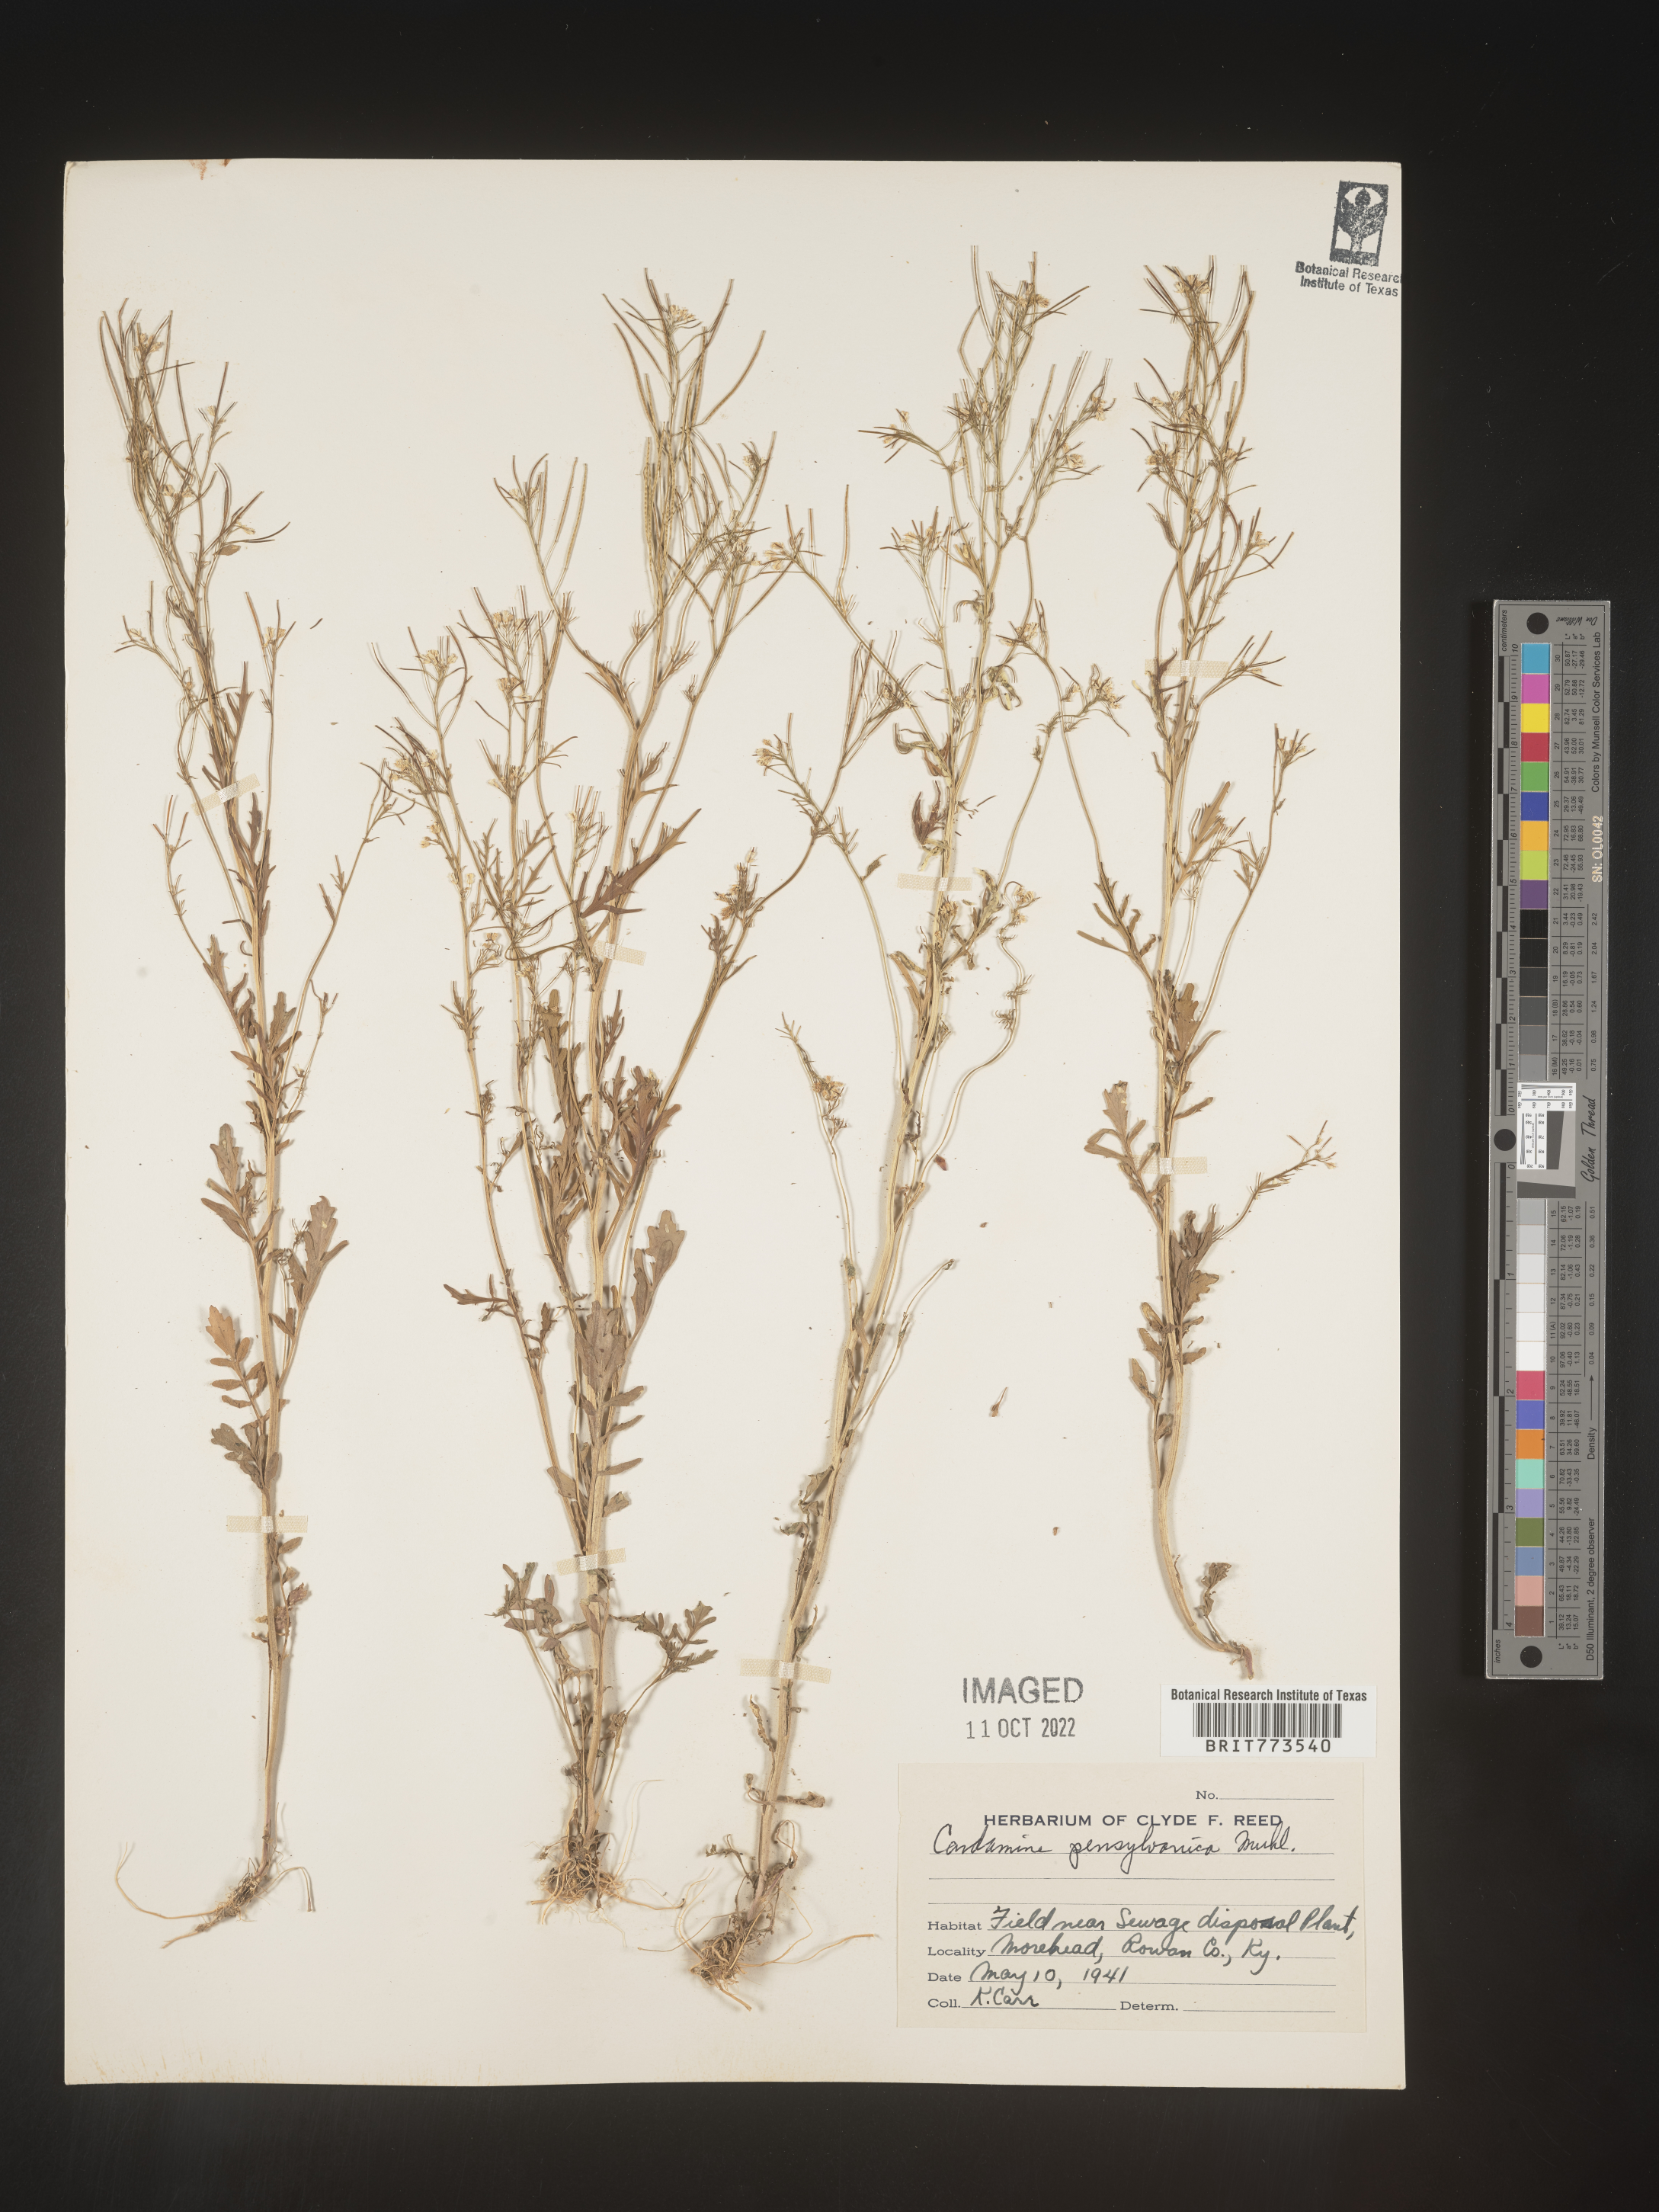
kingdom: Plantae
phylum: Tracheophyta
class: Magnoliopsida
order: Brassicales
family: Brassicaceae
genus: Cardamine
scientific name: Cardamine pensylvanica
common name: Pennsylvania bittercress
